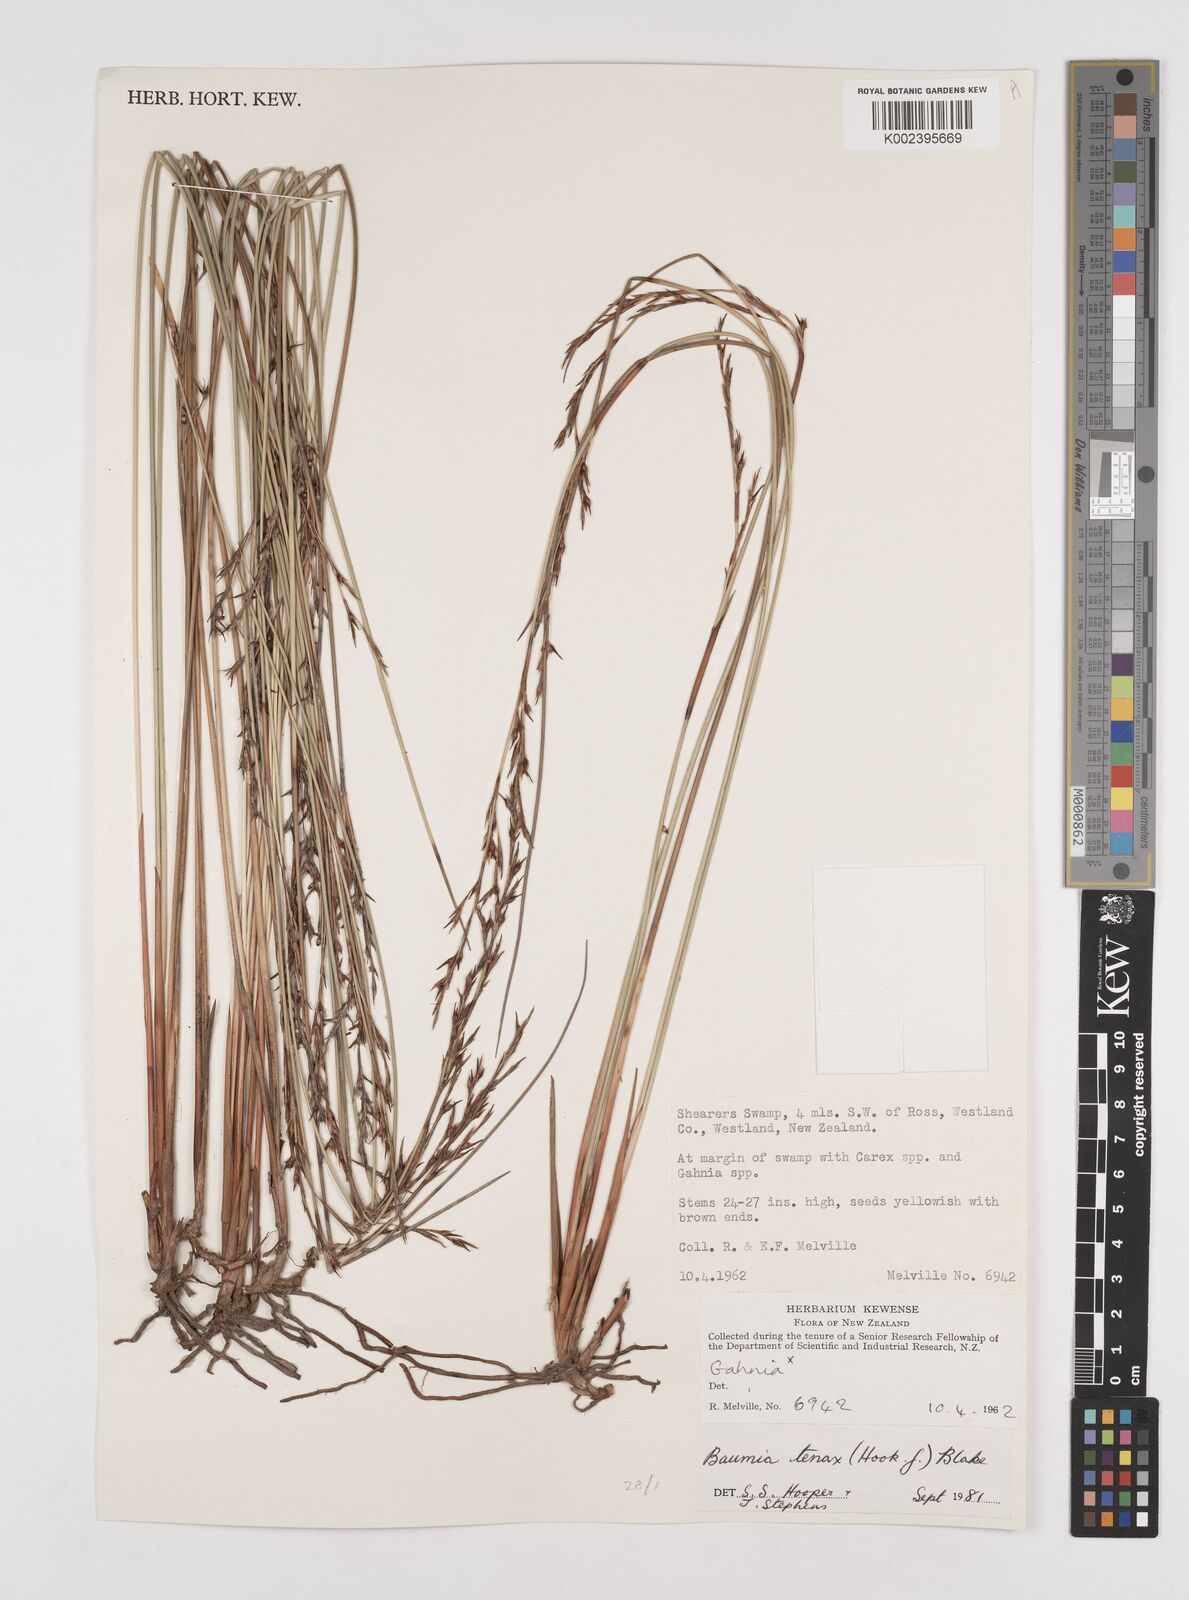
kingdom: Plantae
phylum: Tracheophyta
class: Liliopsida
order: Poales
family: Cyperaceae
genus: Machaerina
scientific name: Machaerina tenax
